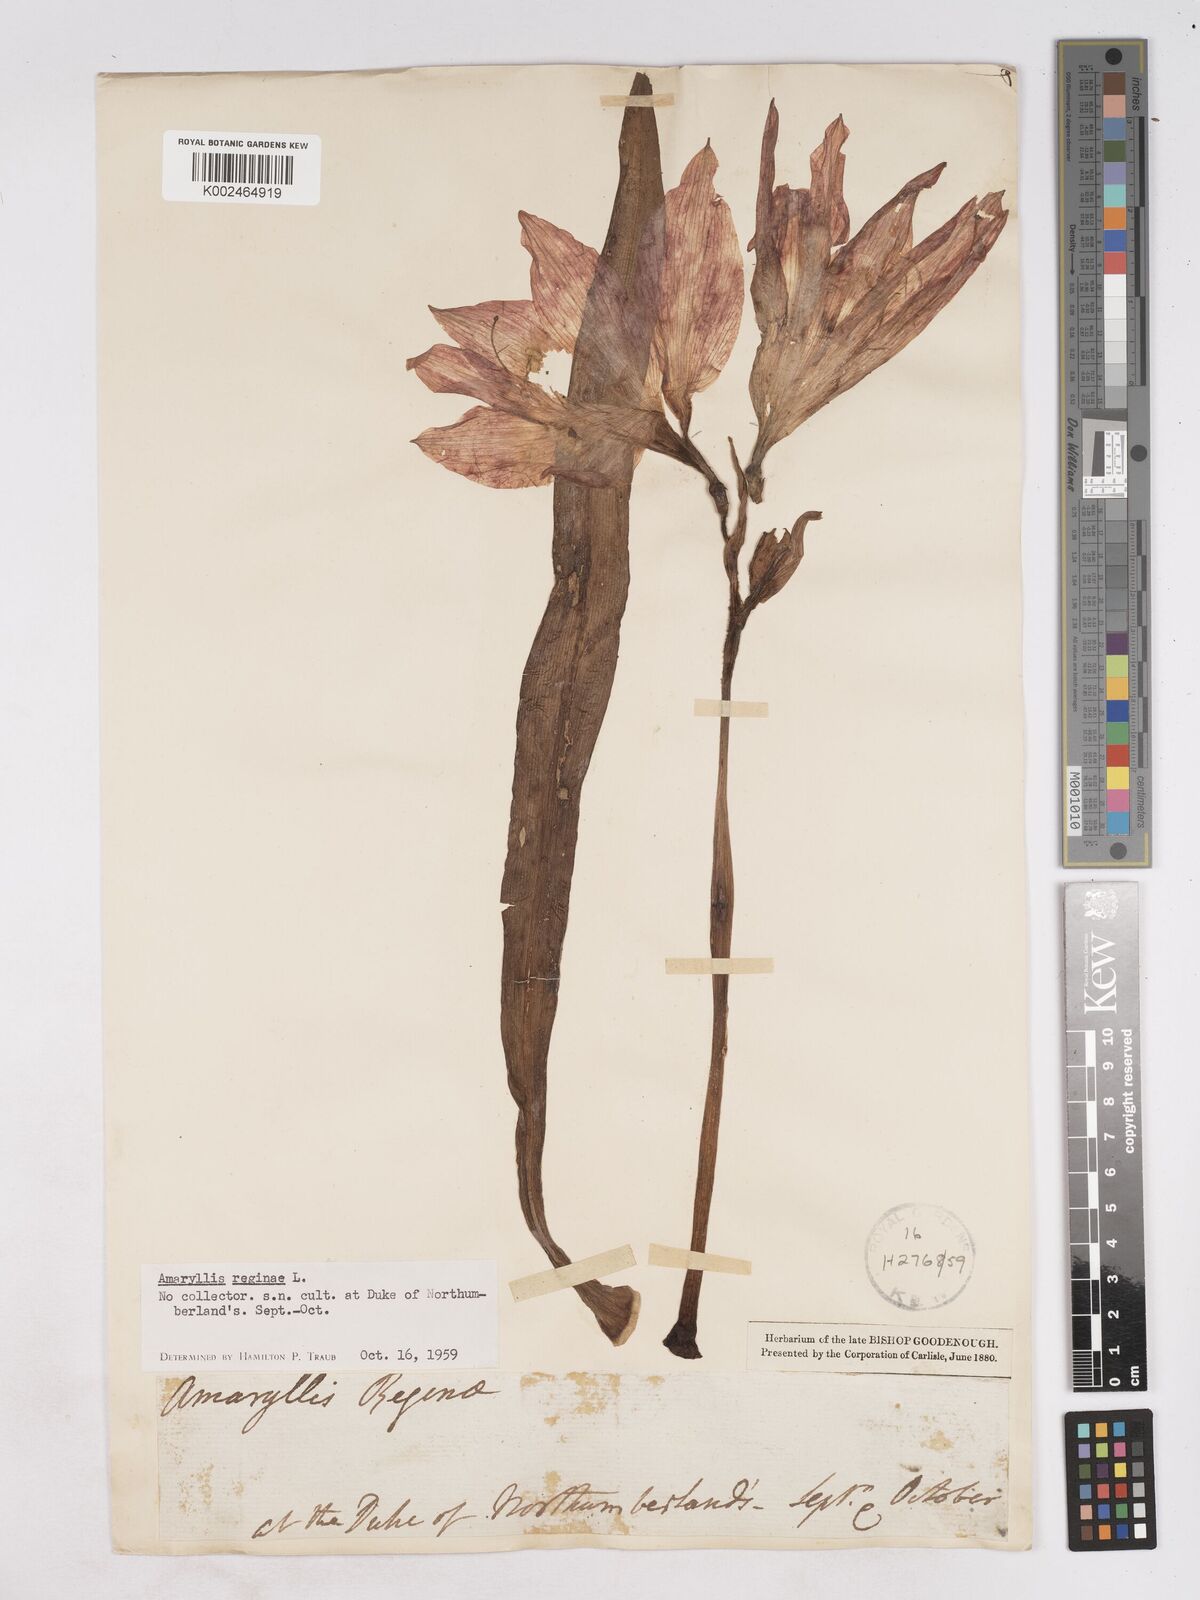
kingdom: Plantae
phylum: Tracheophyta
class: Liliopsida
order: Asparagales
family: Amaryllidaceae
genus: Hippeastrum
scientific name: Hippeastrum reginae
